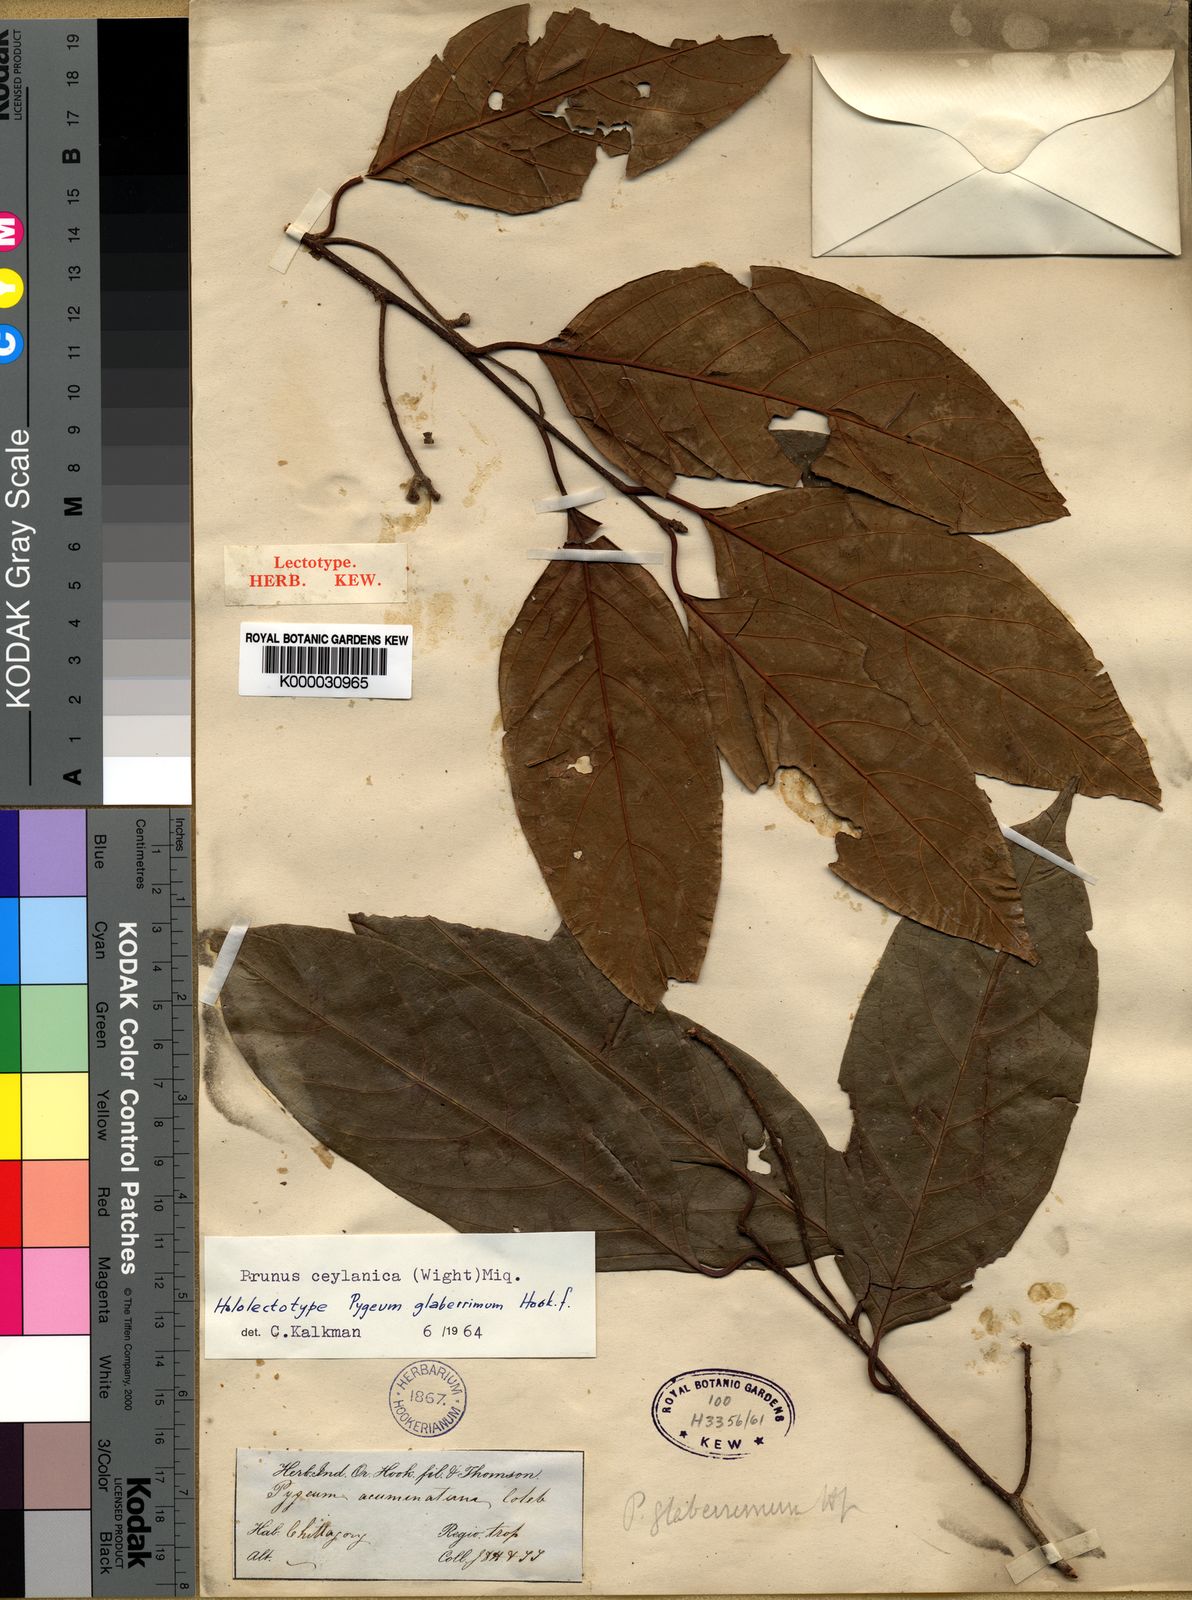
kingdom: Plantae
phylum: Tracheophyta
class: Magnoliopsida
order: Rosales
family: Rosaceae
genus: Prunus
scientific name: Prunus ceylanica
